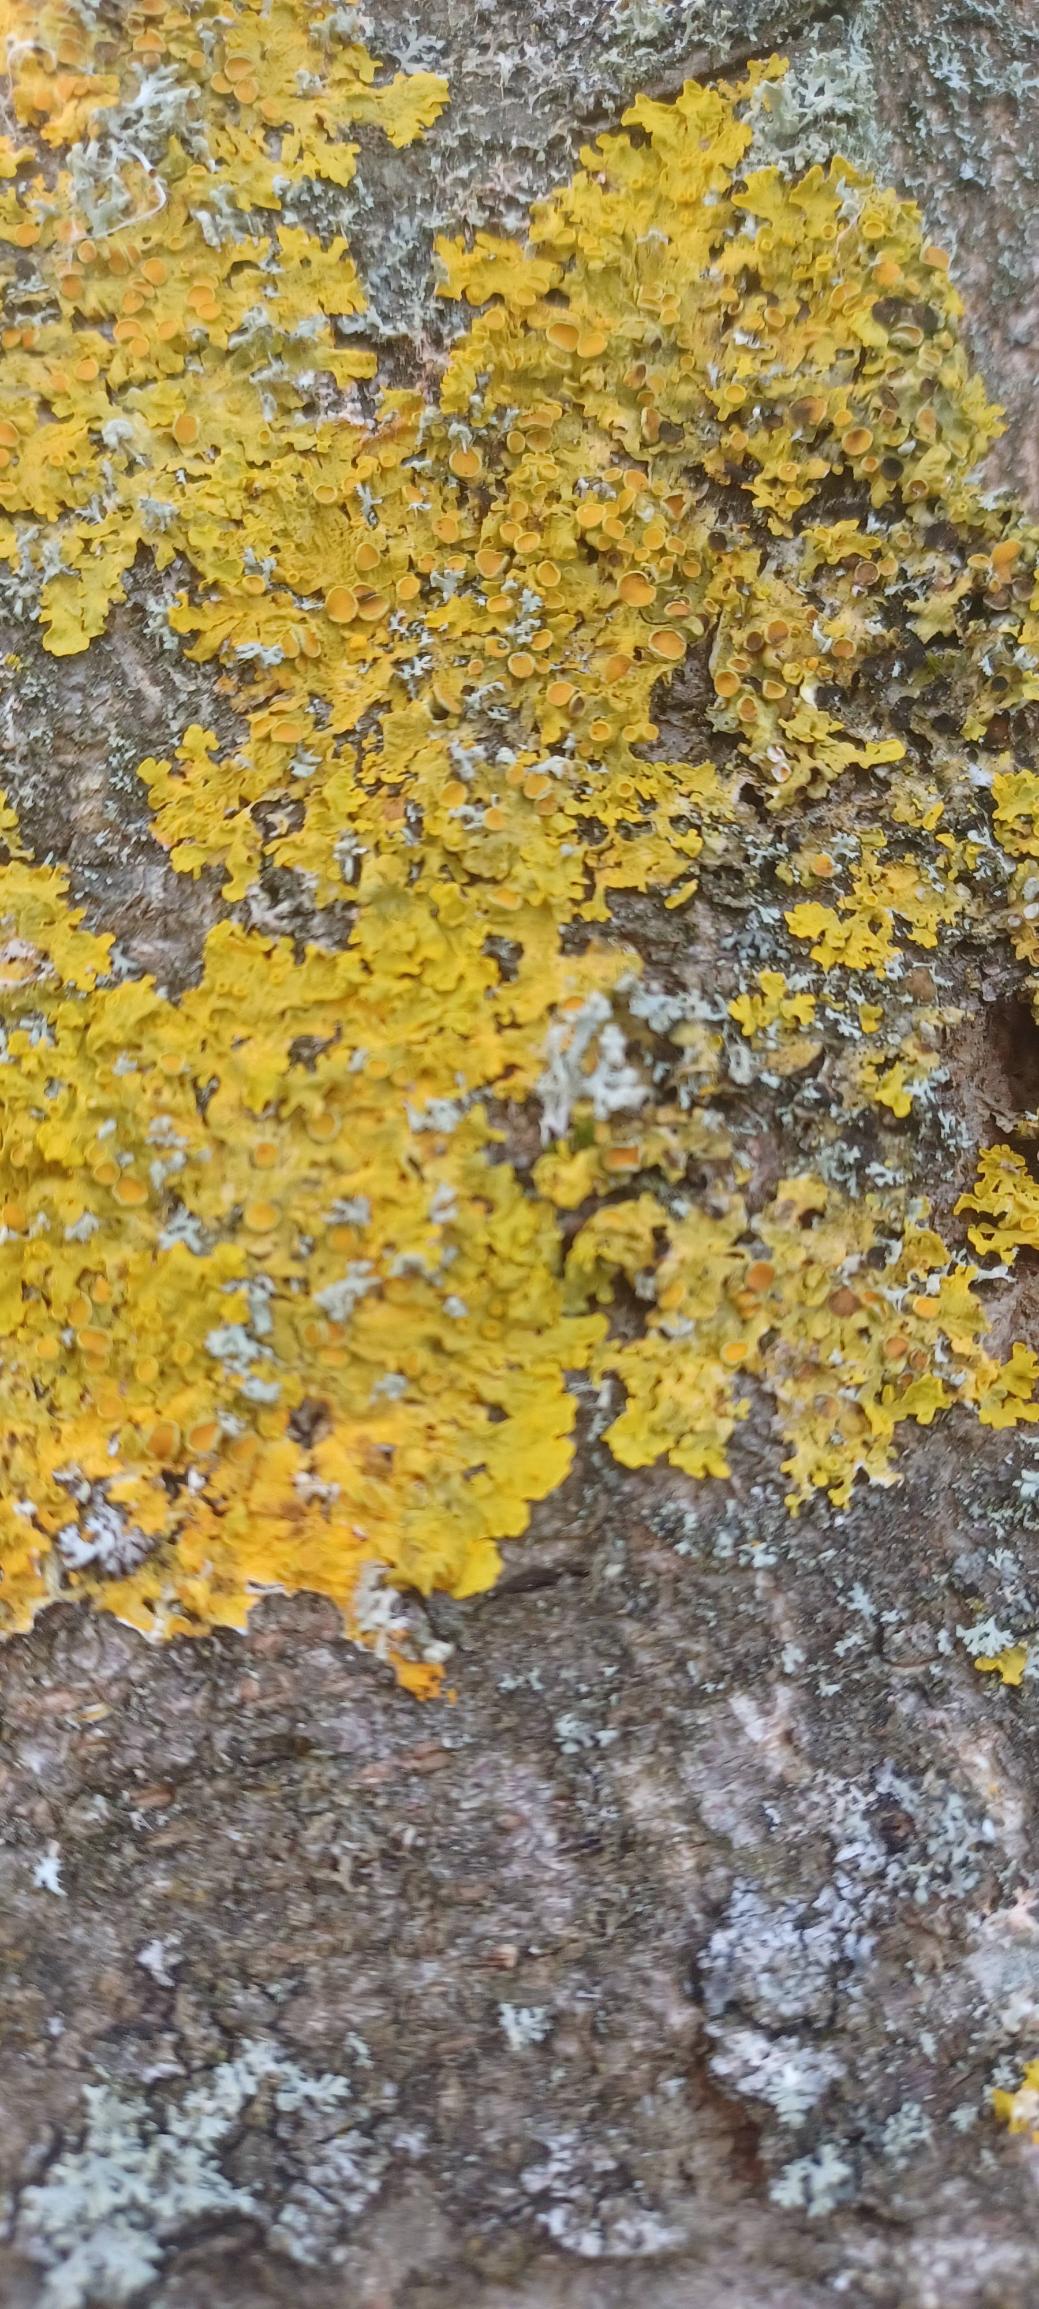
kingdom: Fungi
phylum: Ascomycota
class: Lecanoromycetes
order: Teloschistales
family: Teloschistaceae
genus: Xanthoria
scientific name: Xanthoria parietina
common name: Almindelig væggelav
